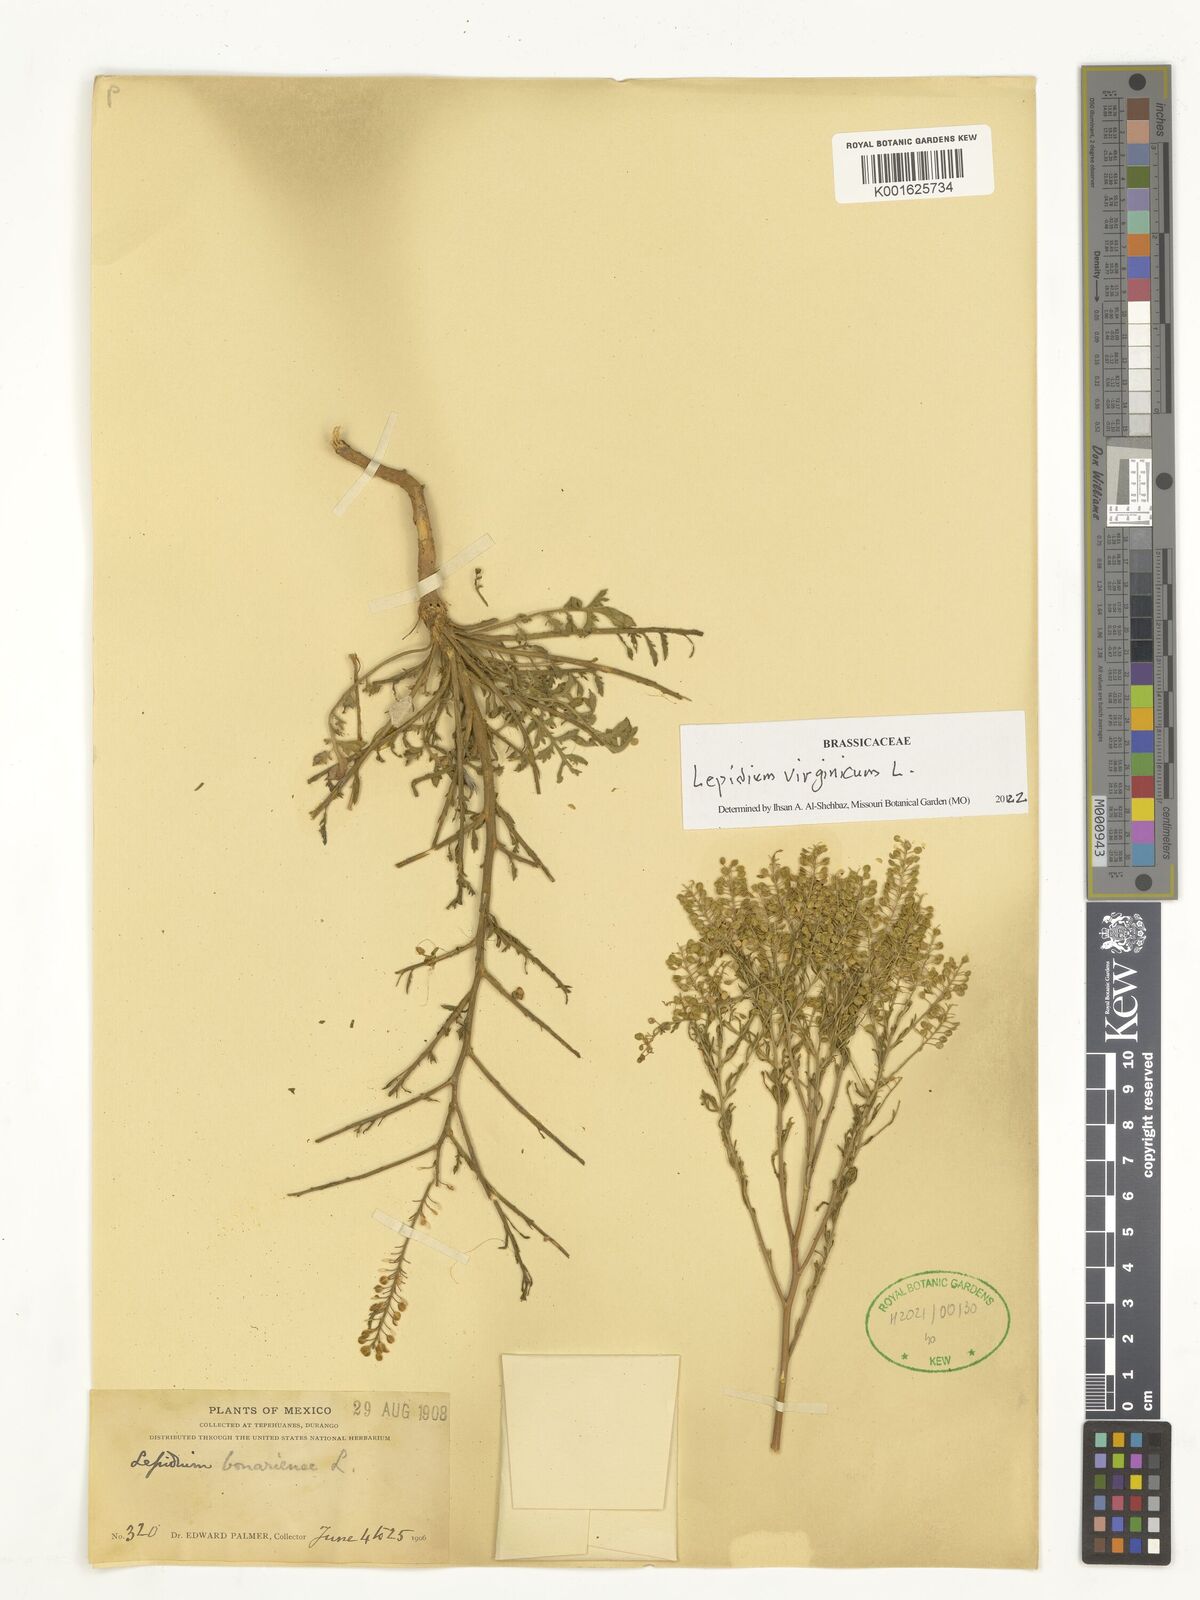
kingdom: Plantae
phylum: Tracheophyta
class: Magnoliopsida
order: Brassicales
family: Brassicaceae
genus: Lepidium
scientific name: Lepidium virginicum
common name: Least pepperwort
